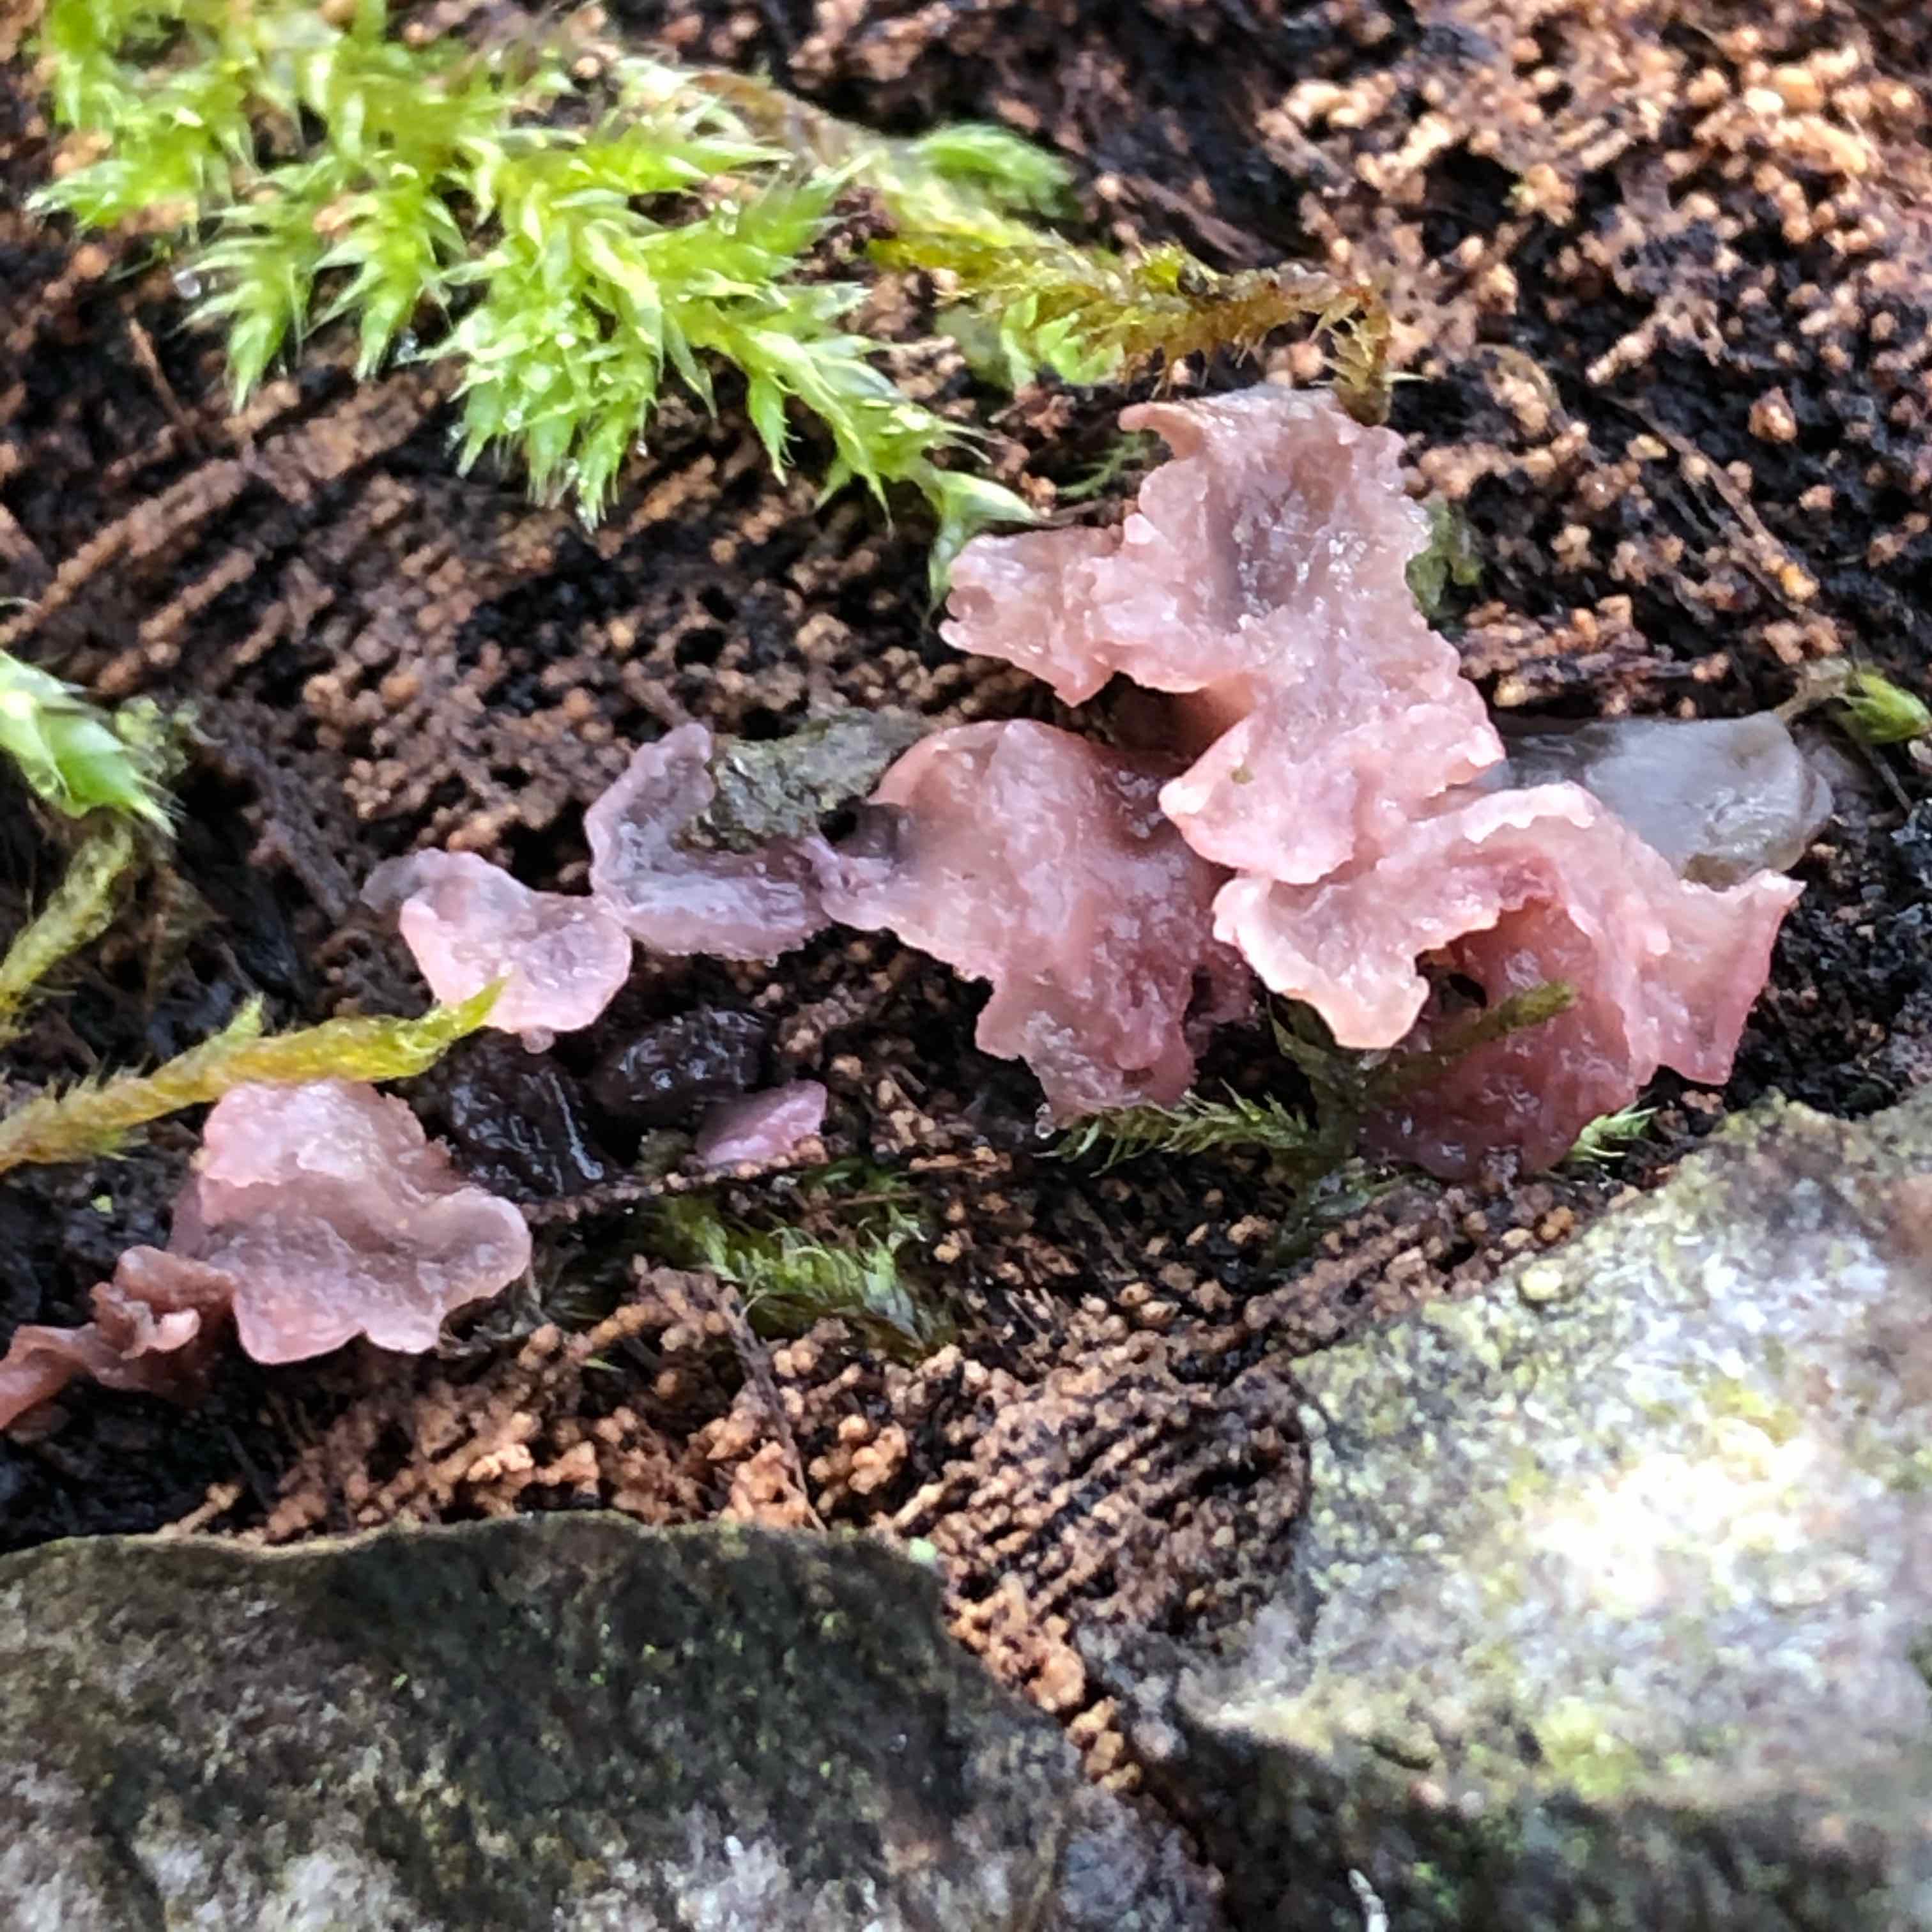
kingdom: Fungi
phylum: Ascomycota
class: Leotiomycetes
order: Helotiales
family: Gelatinodiscaceae
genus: Ascocoryne
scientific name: Ascocoryne
